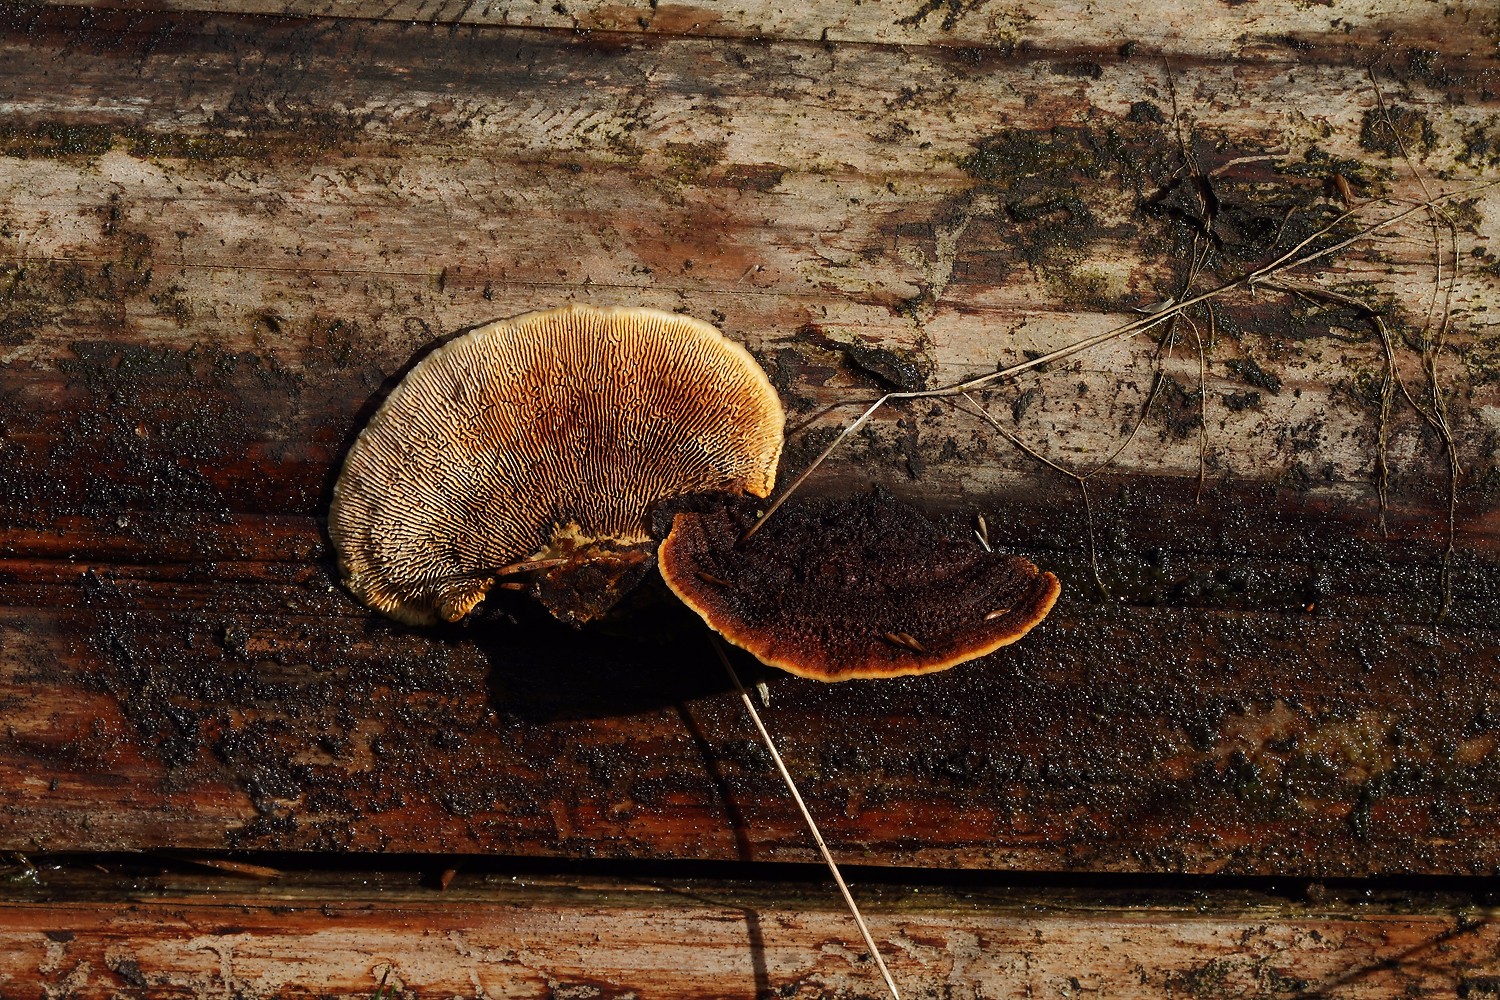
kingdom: Fungi
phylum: Basidiomycota
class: Agaricomycetes
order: Gloeophyllales
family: Gloeophyllaceae
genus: Gloeophyllum
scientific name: Gloeophyllum sepiarium
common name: fyrre-korkhat
